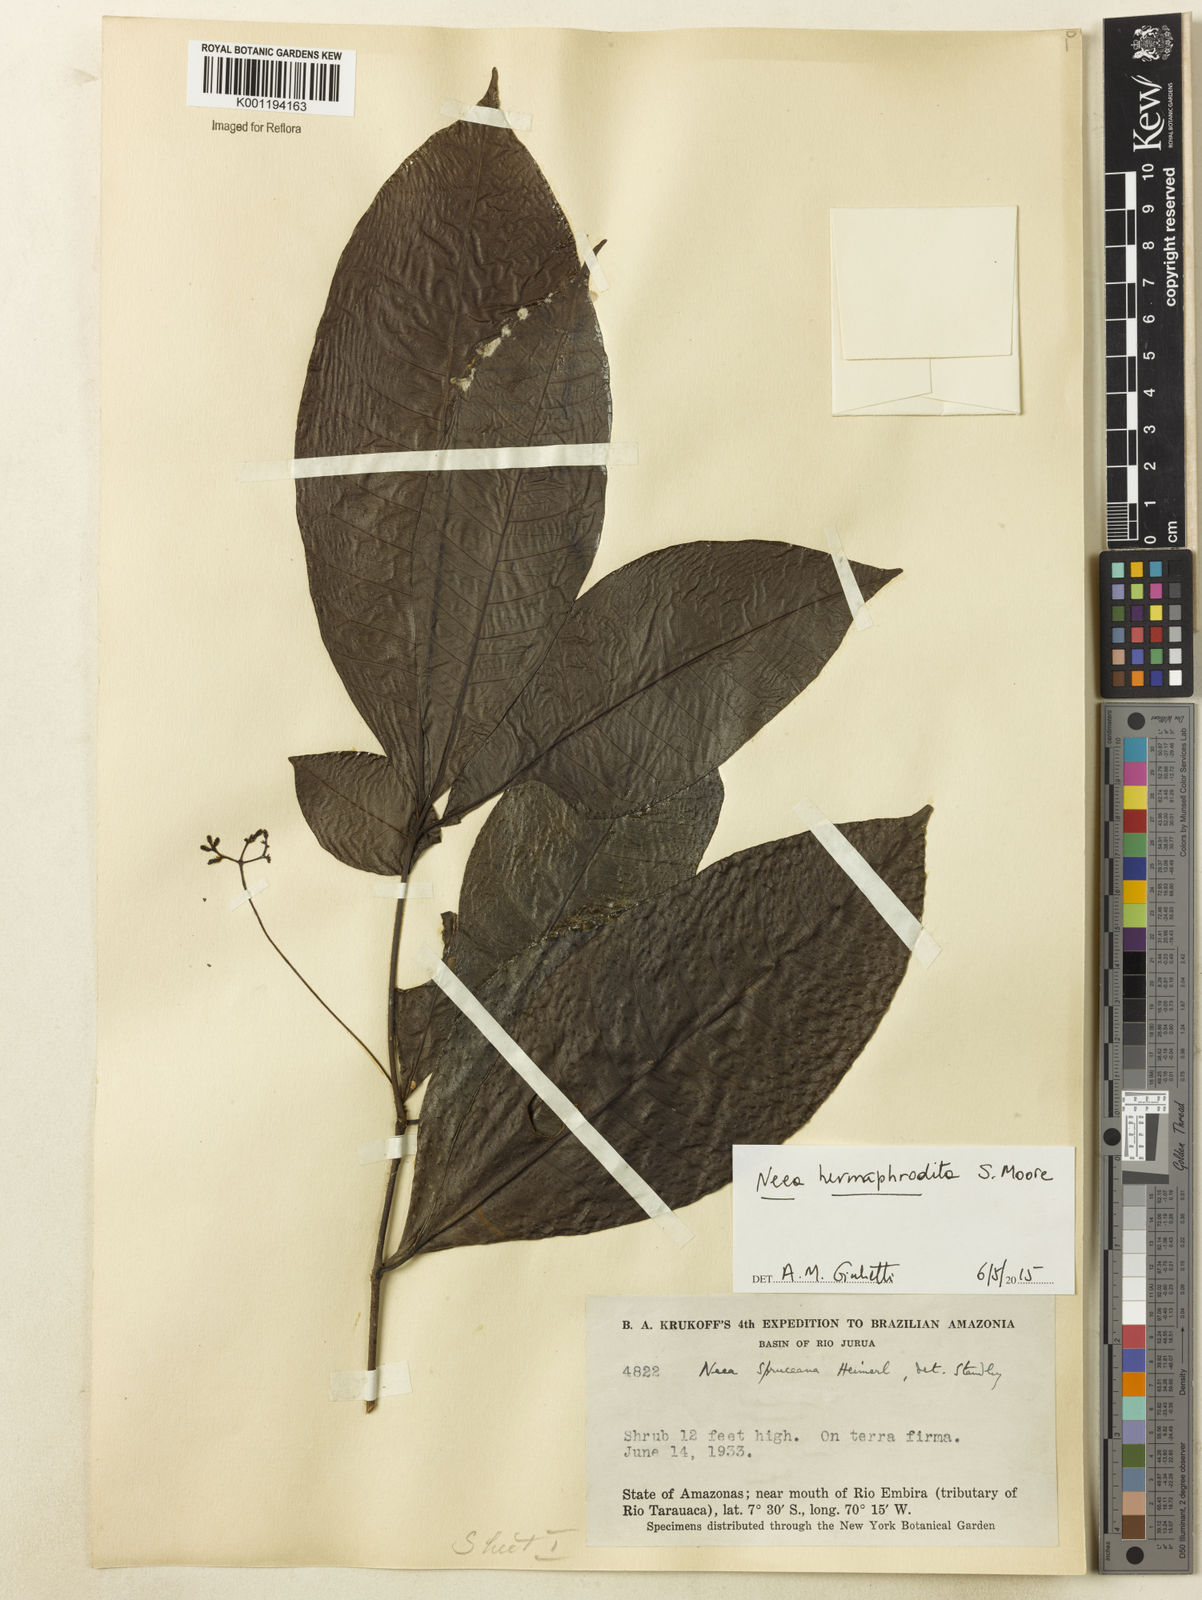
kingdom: Plantae
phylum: Tracheophyta
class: Magnoliopsida
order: Caryophyllales
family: Nyctaginaceae
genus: Neea
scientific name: Neea hermaphrodita
